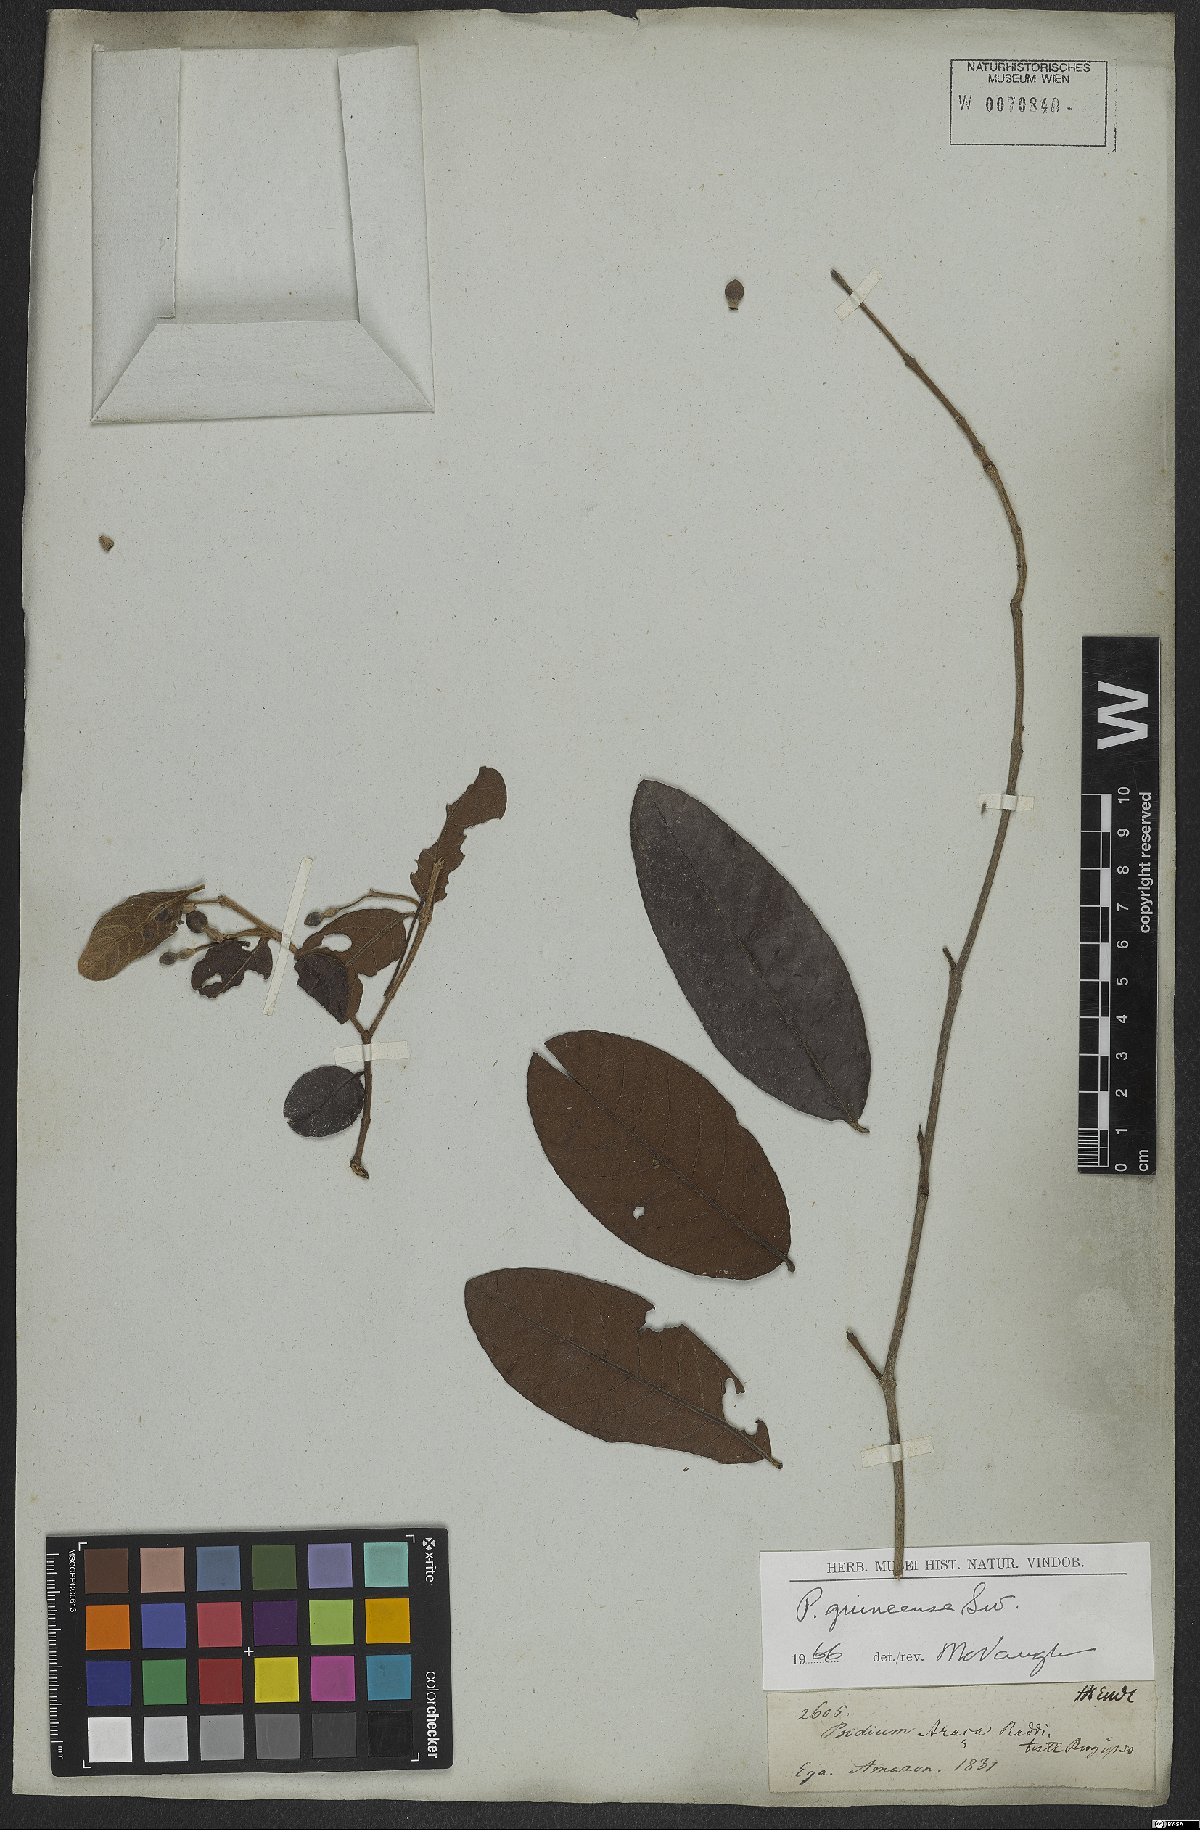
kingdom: Plantae
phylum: Tracheophyta
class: Magnoliopsida
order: Myrtales
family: Myrtaceae
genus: Psidium
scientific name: Psidium guineense
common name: Brazilian guava
